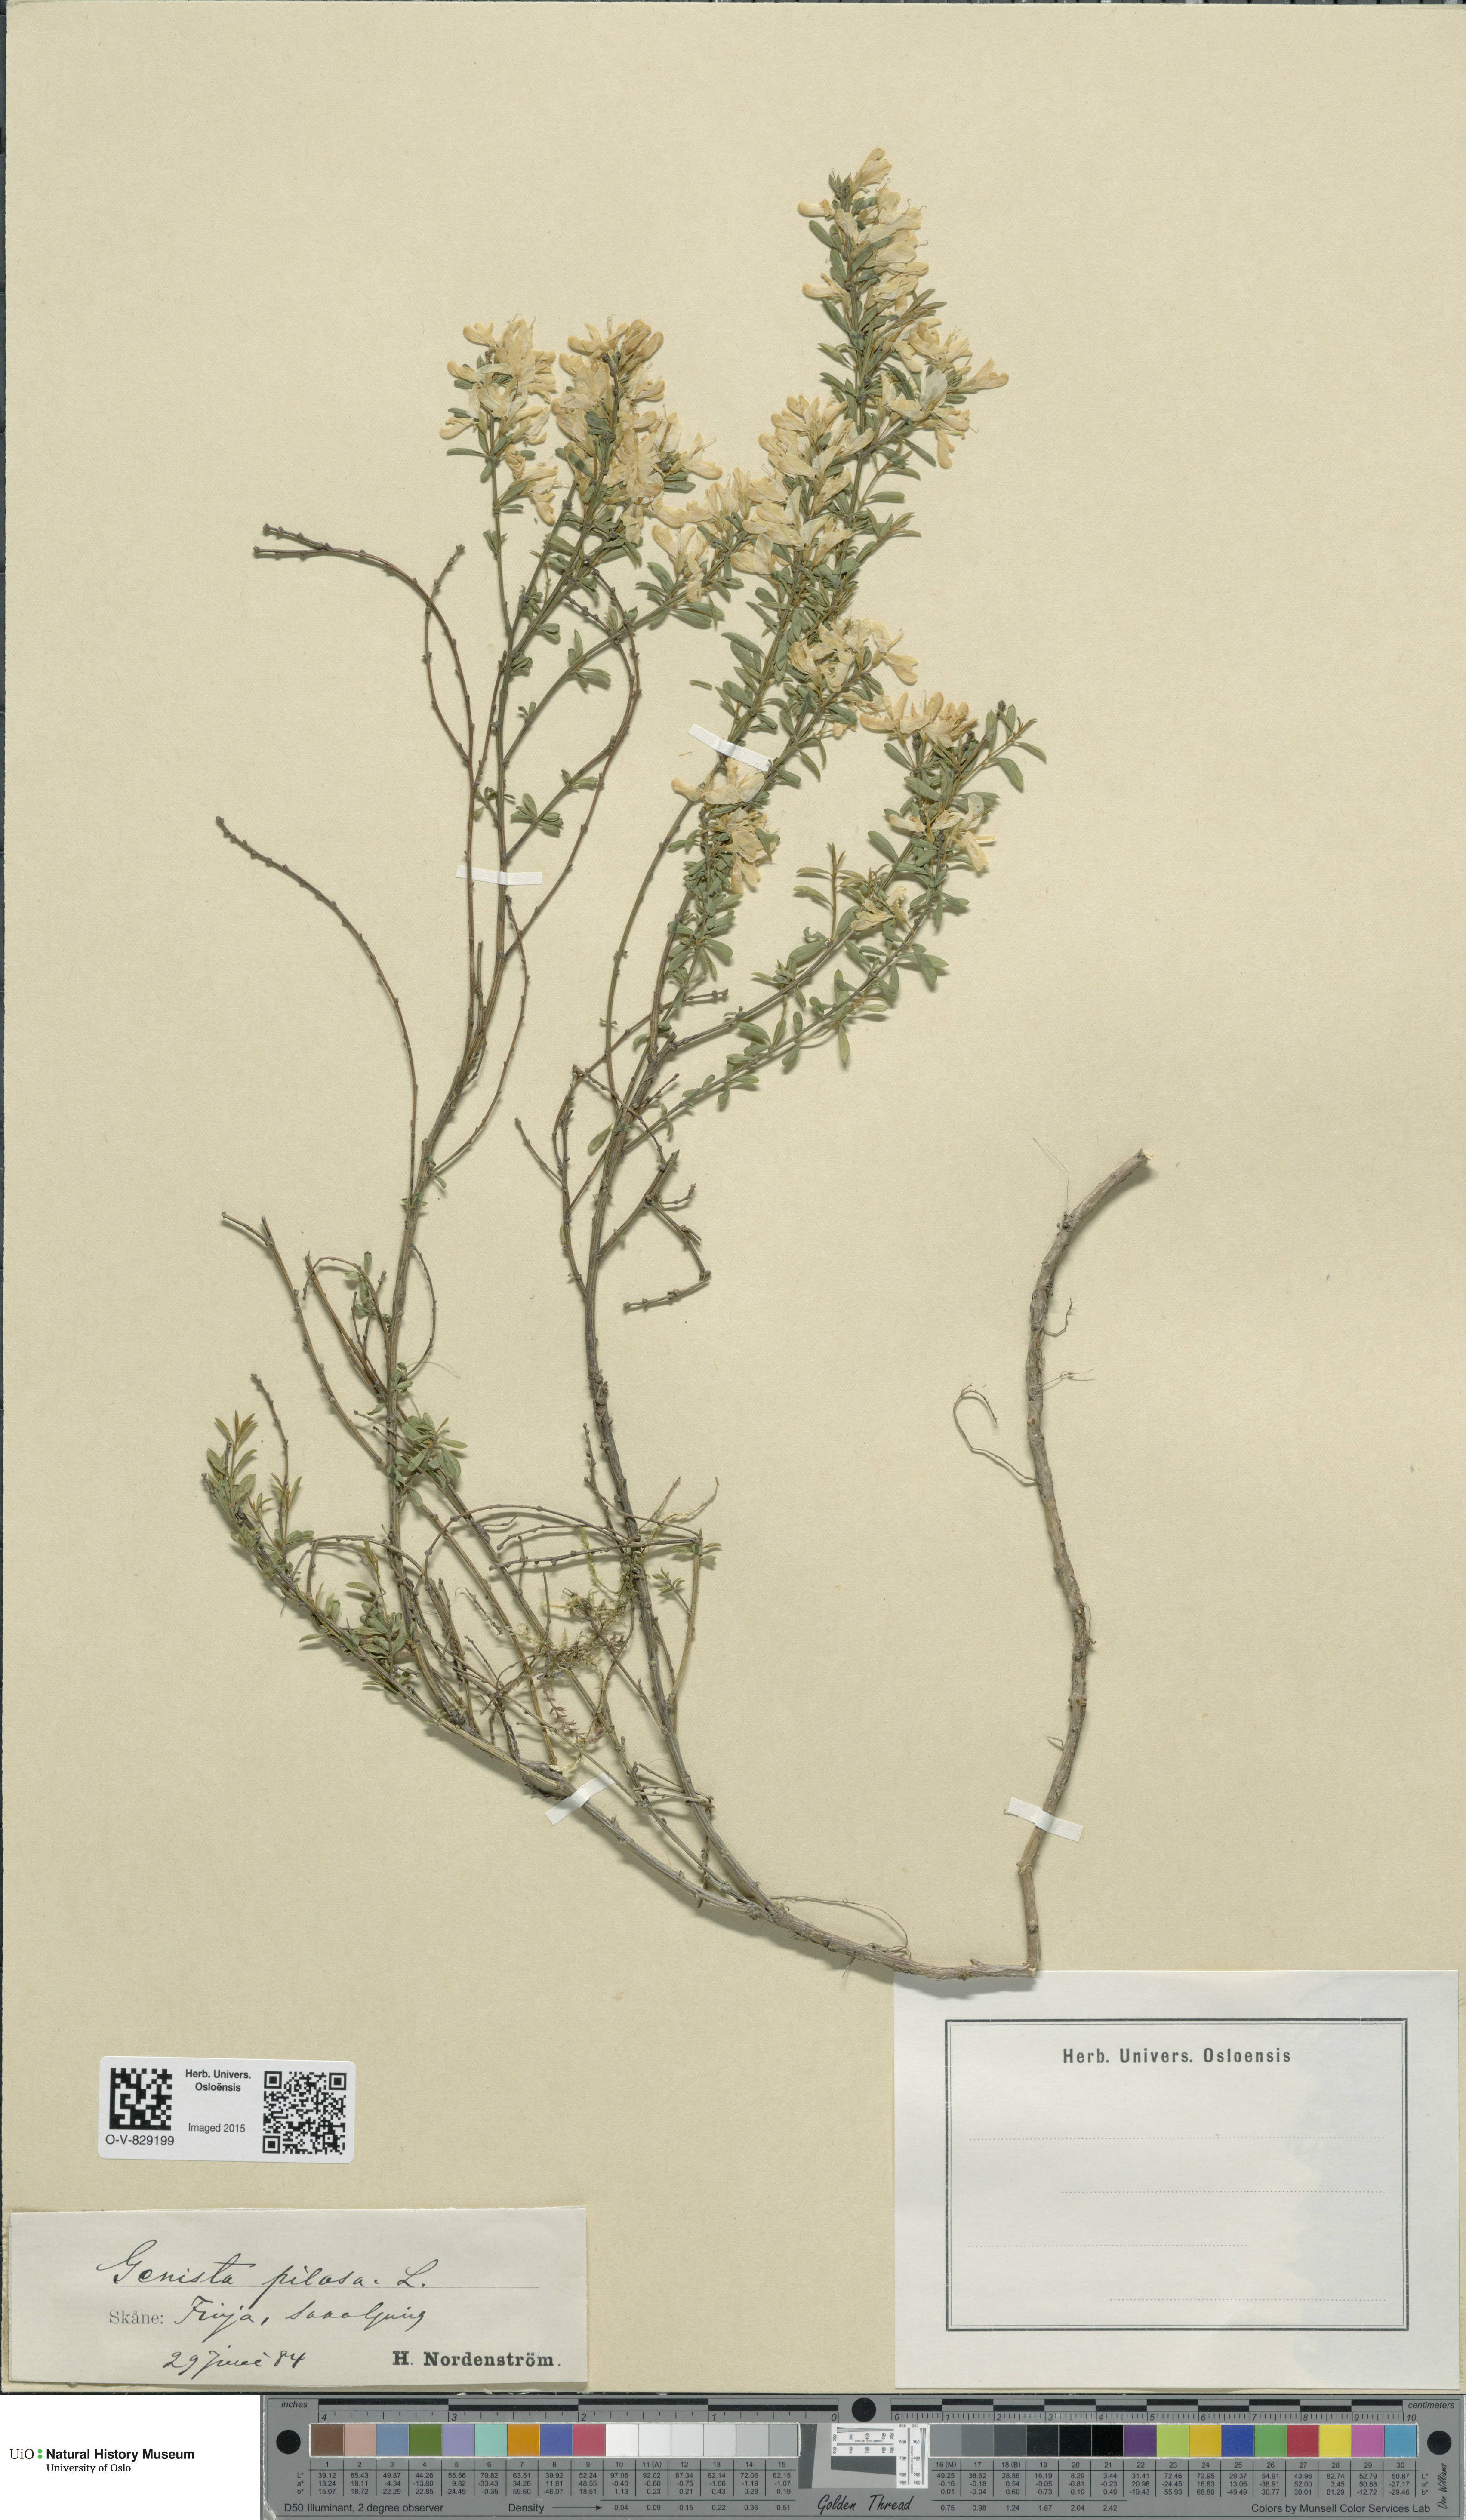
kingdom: Plantae
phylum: Tracheophyta
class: Magnoliopsida
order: Fabales
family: Fabaceae
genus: Genista
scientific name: Genista pilosa
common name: Hairy greenweed
